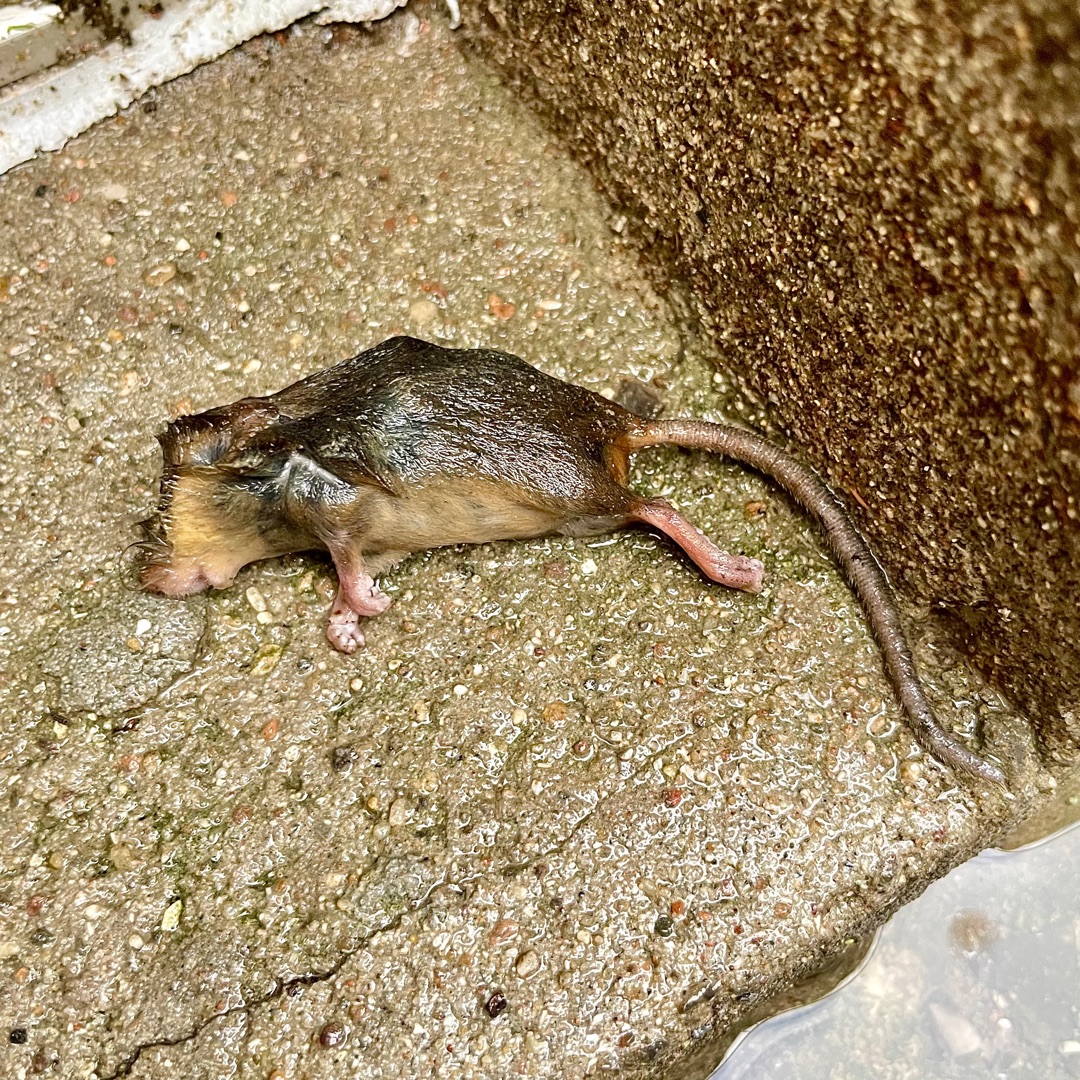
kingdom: Animalia
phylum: Chordata
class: Mammalia
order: Rodentia
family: Muridae
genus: Rattus
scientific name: Rattus norvegicus
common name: Brun rotte
